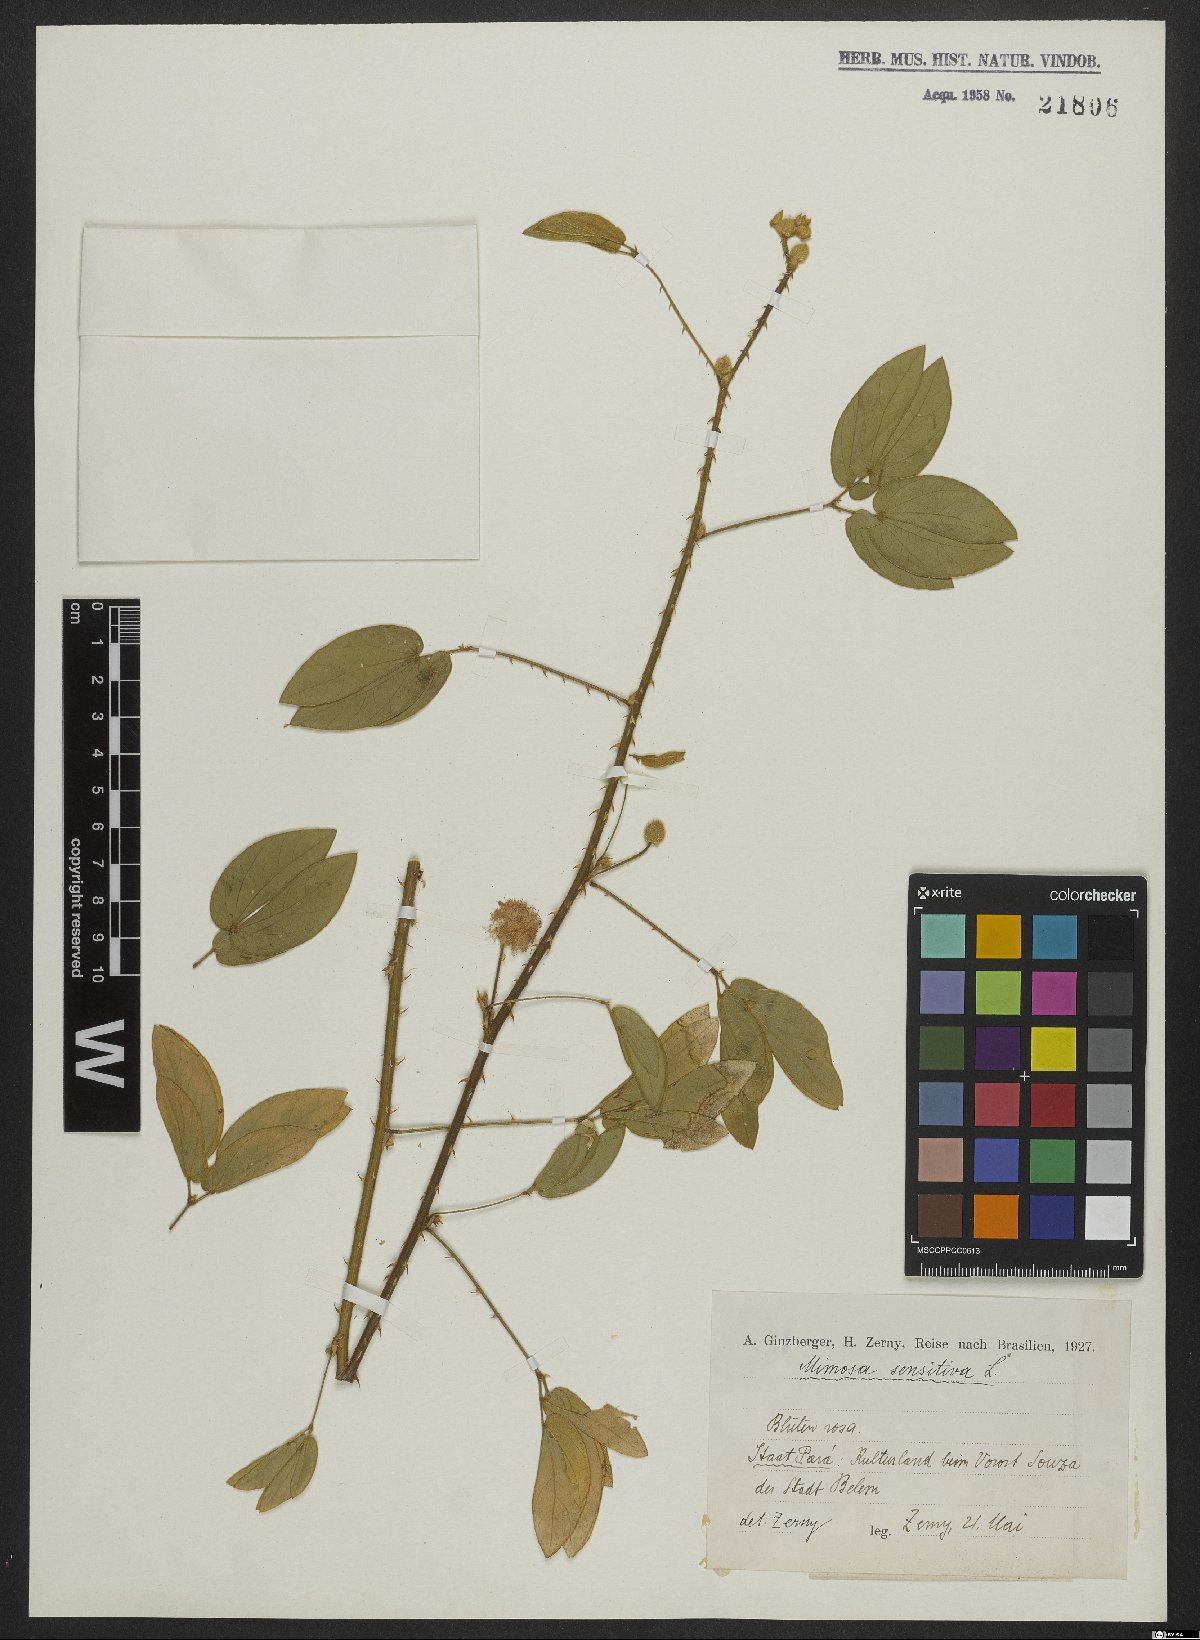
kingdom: Plantae
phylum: Tracheophyta
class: Magnoliopsida
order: Fabales
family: Fabaceae
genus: Mimosa
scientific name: Mimosa sensitiva
